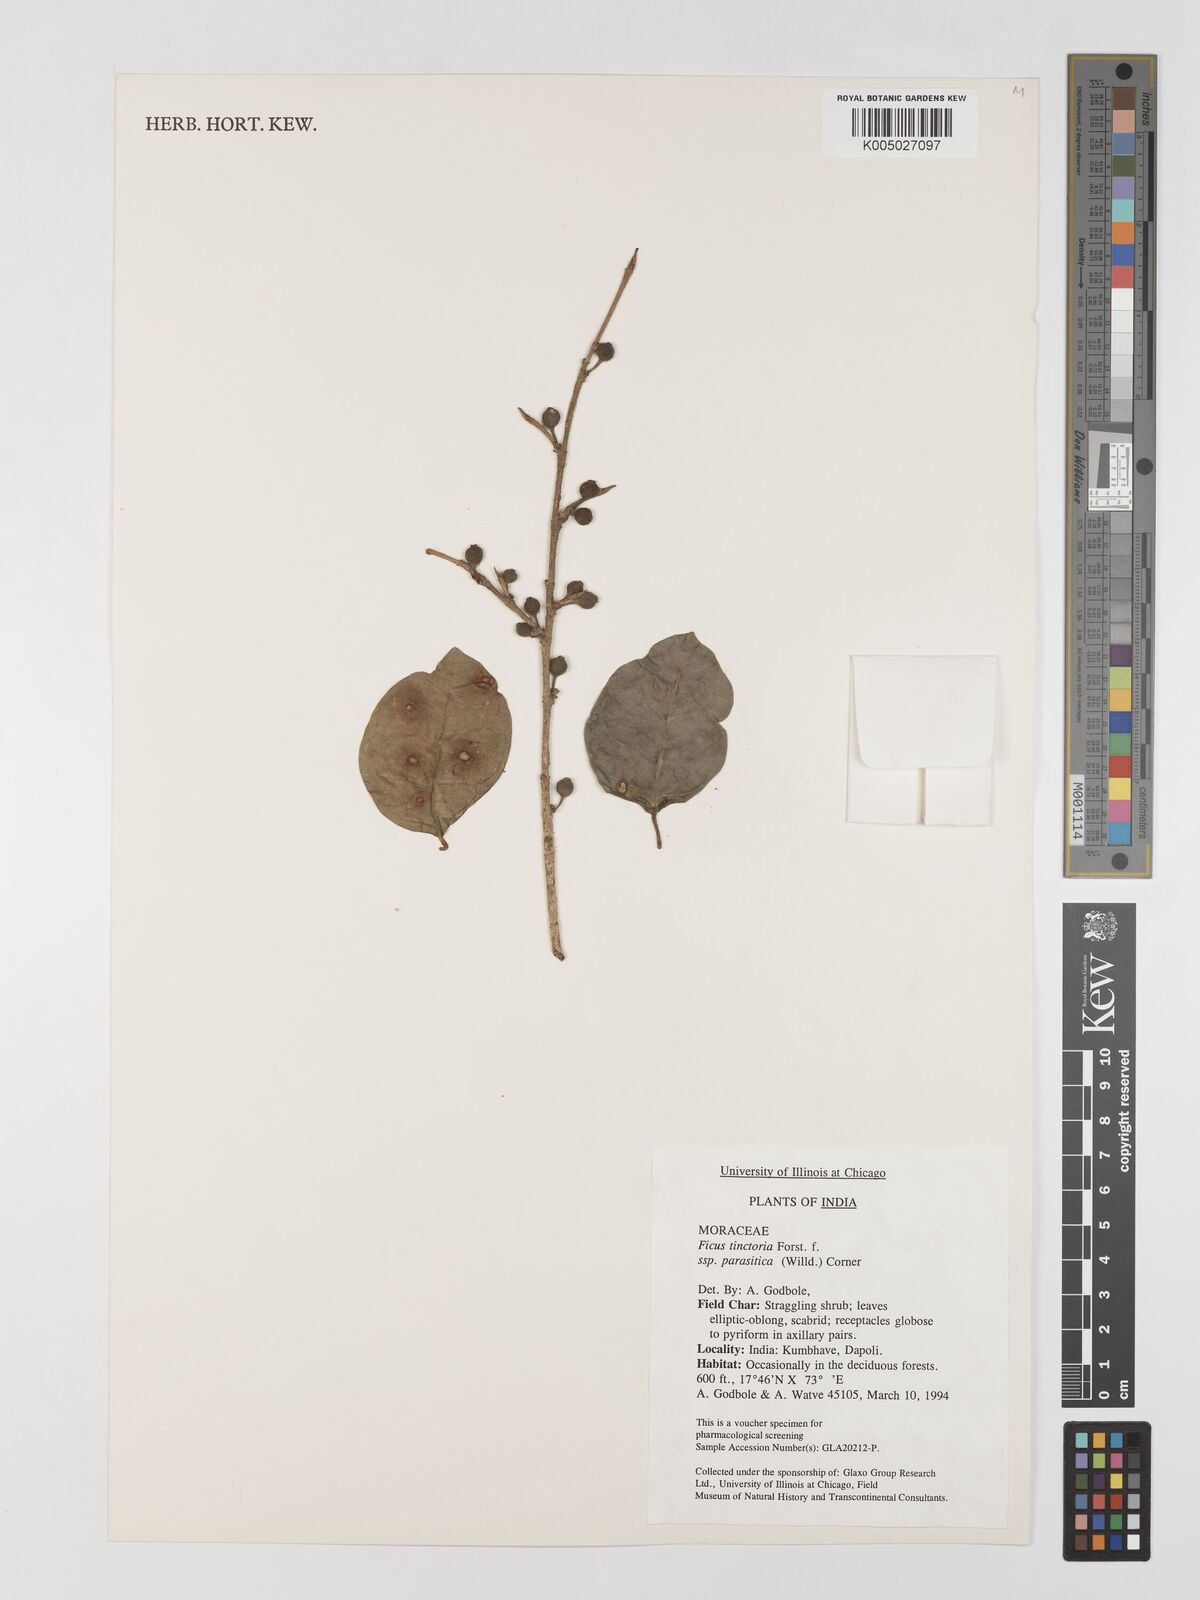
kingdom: Plantae
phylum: Tracheophyta
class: Magnoliopsida
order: Rosales
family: Moraceae
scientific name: Moraceae
